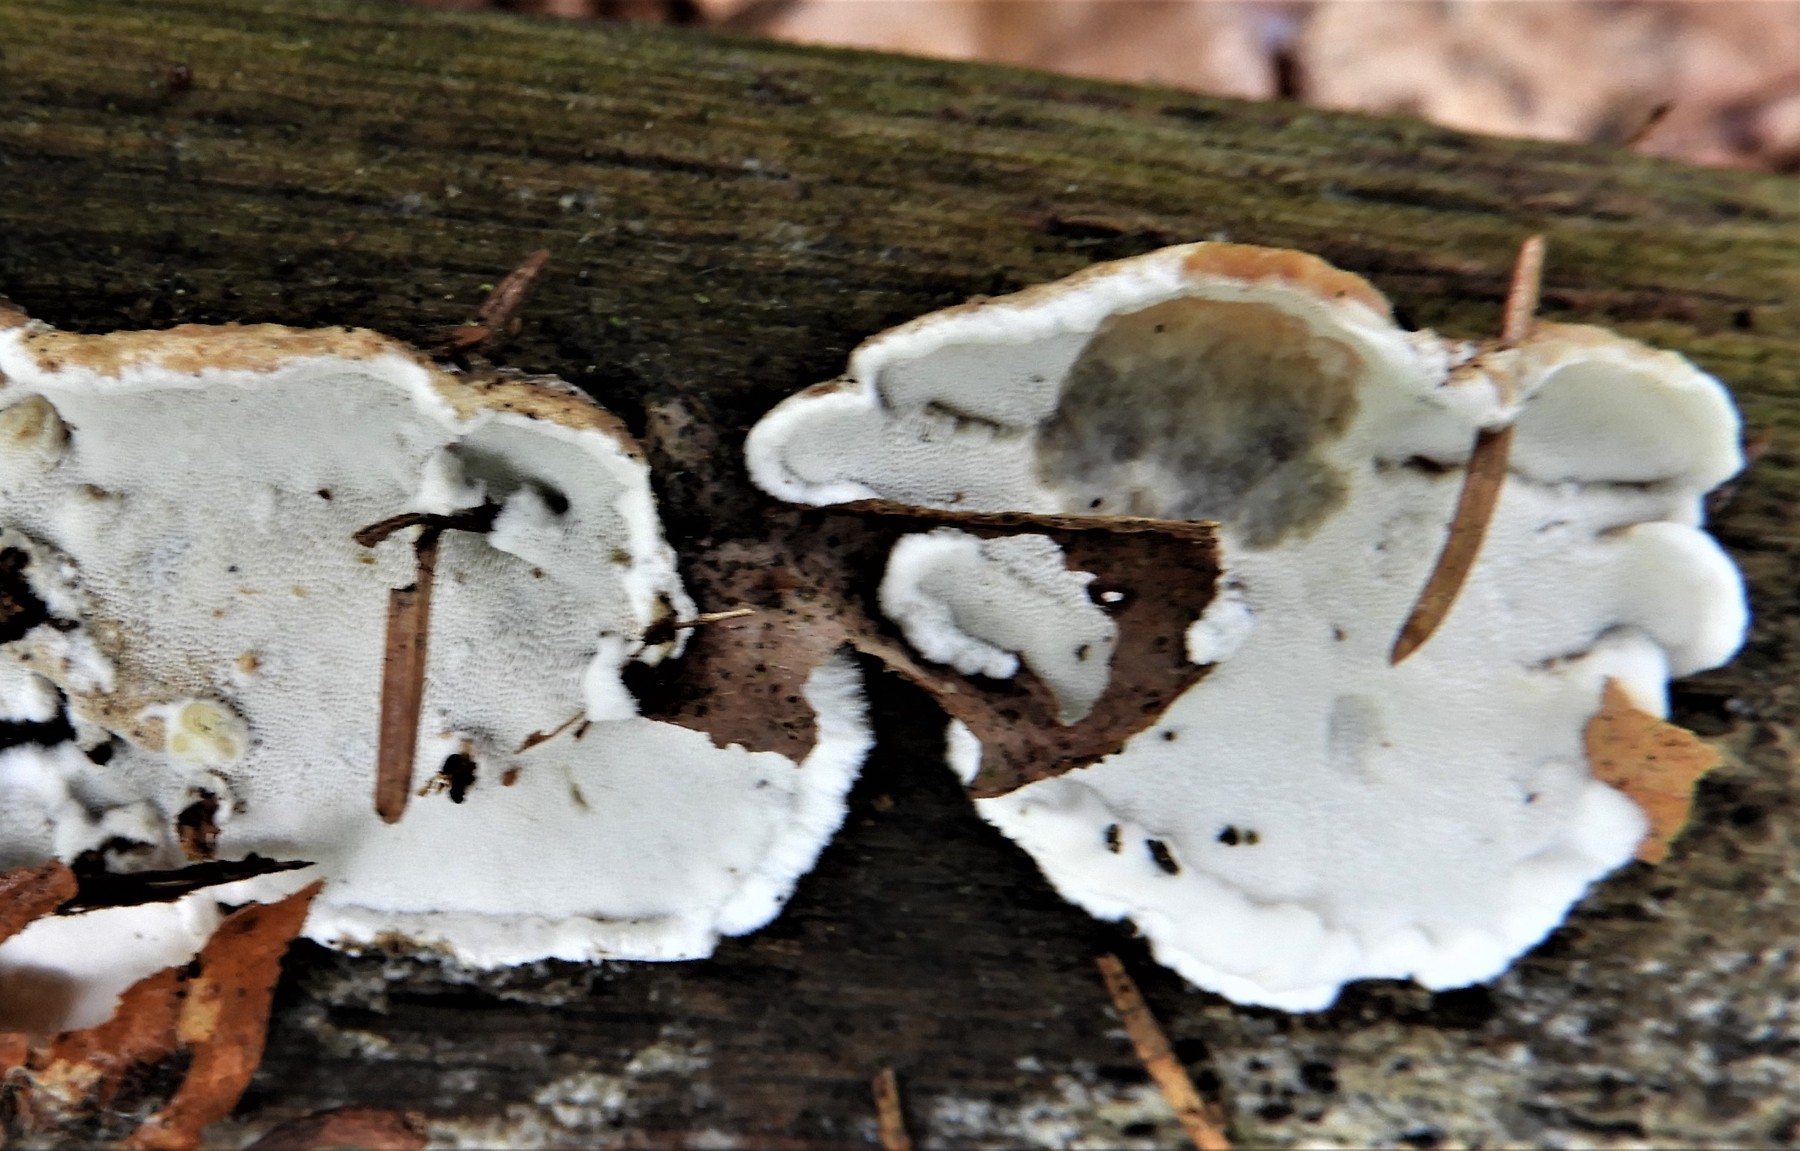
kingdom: Fungi
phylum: Basidiomycota
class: Agaricomycetes
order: Polyporales
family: Incrustoporiaceae
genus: Skeletocutis
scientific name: Skeletocutis nemoralis
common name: stor krystalporesvamp
